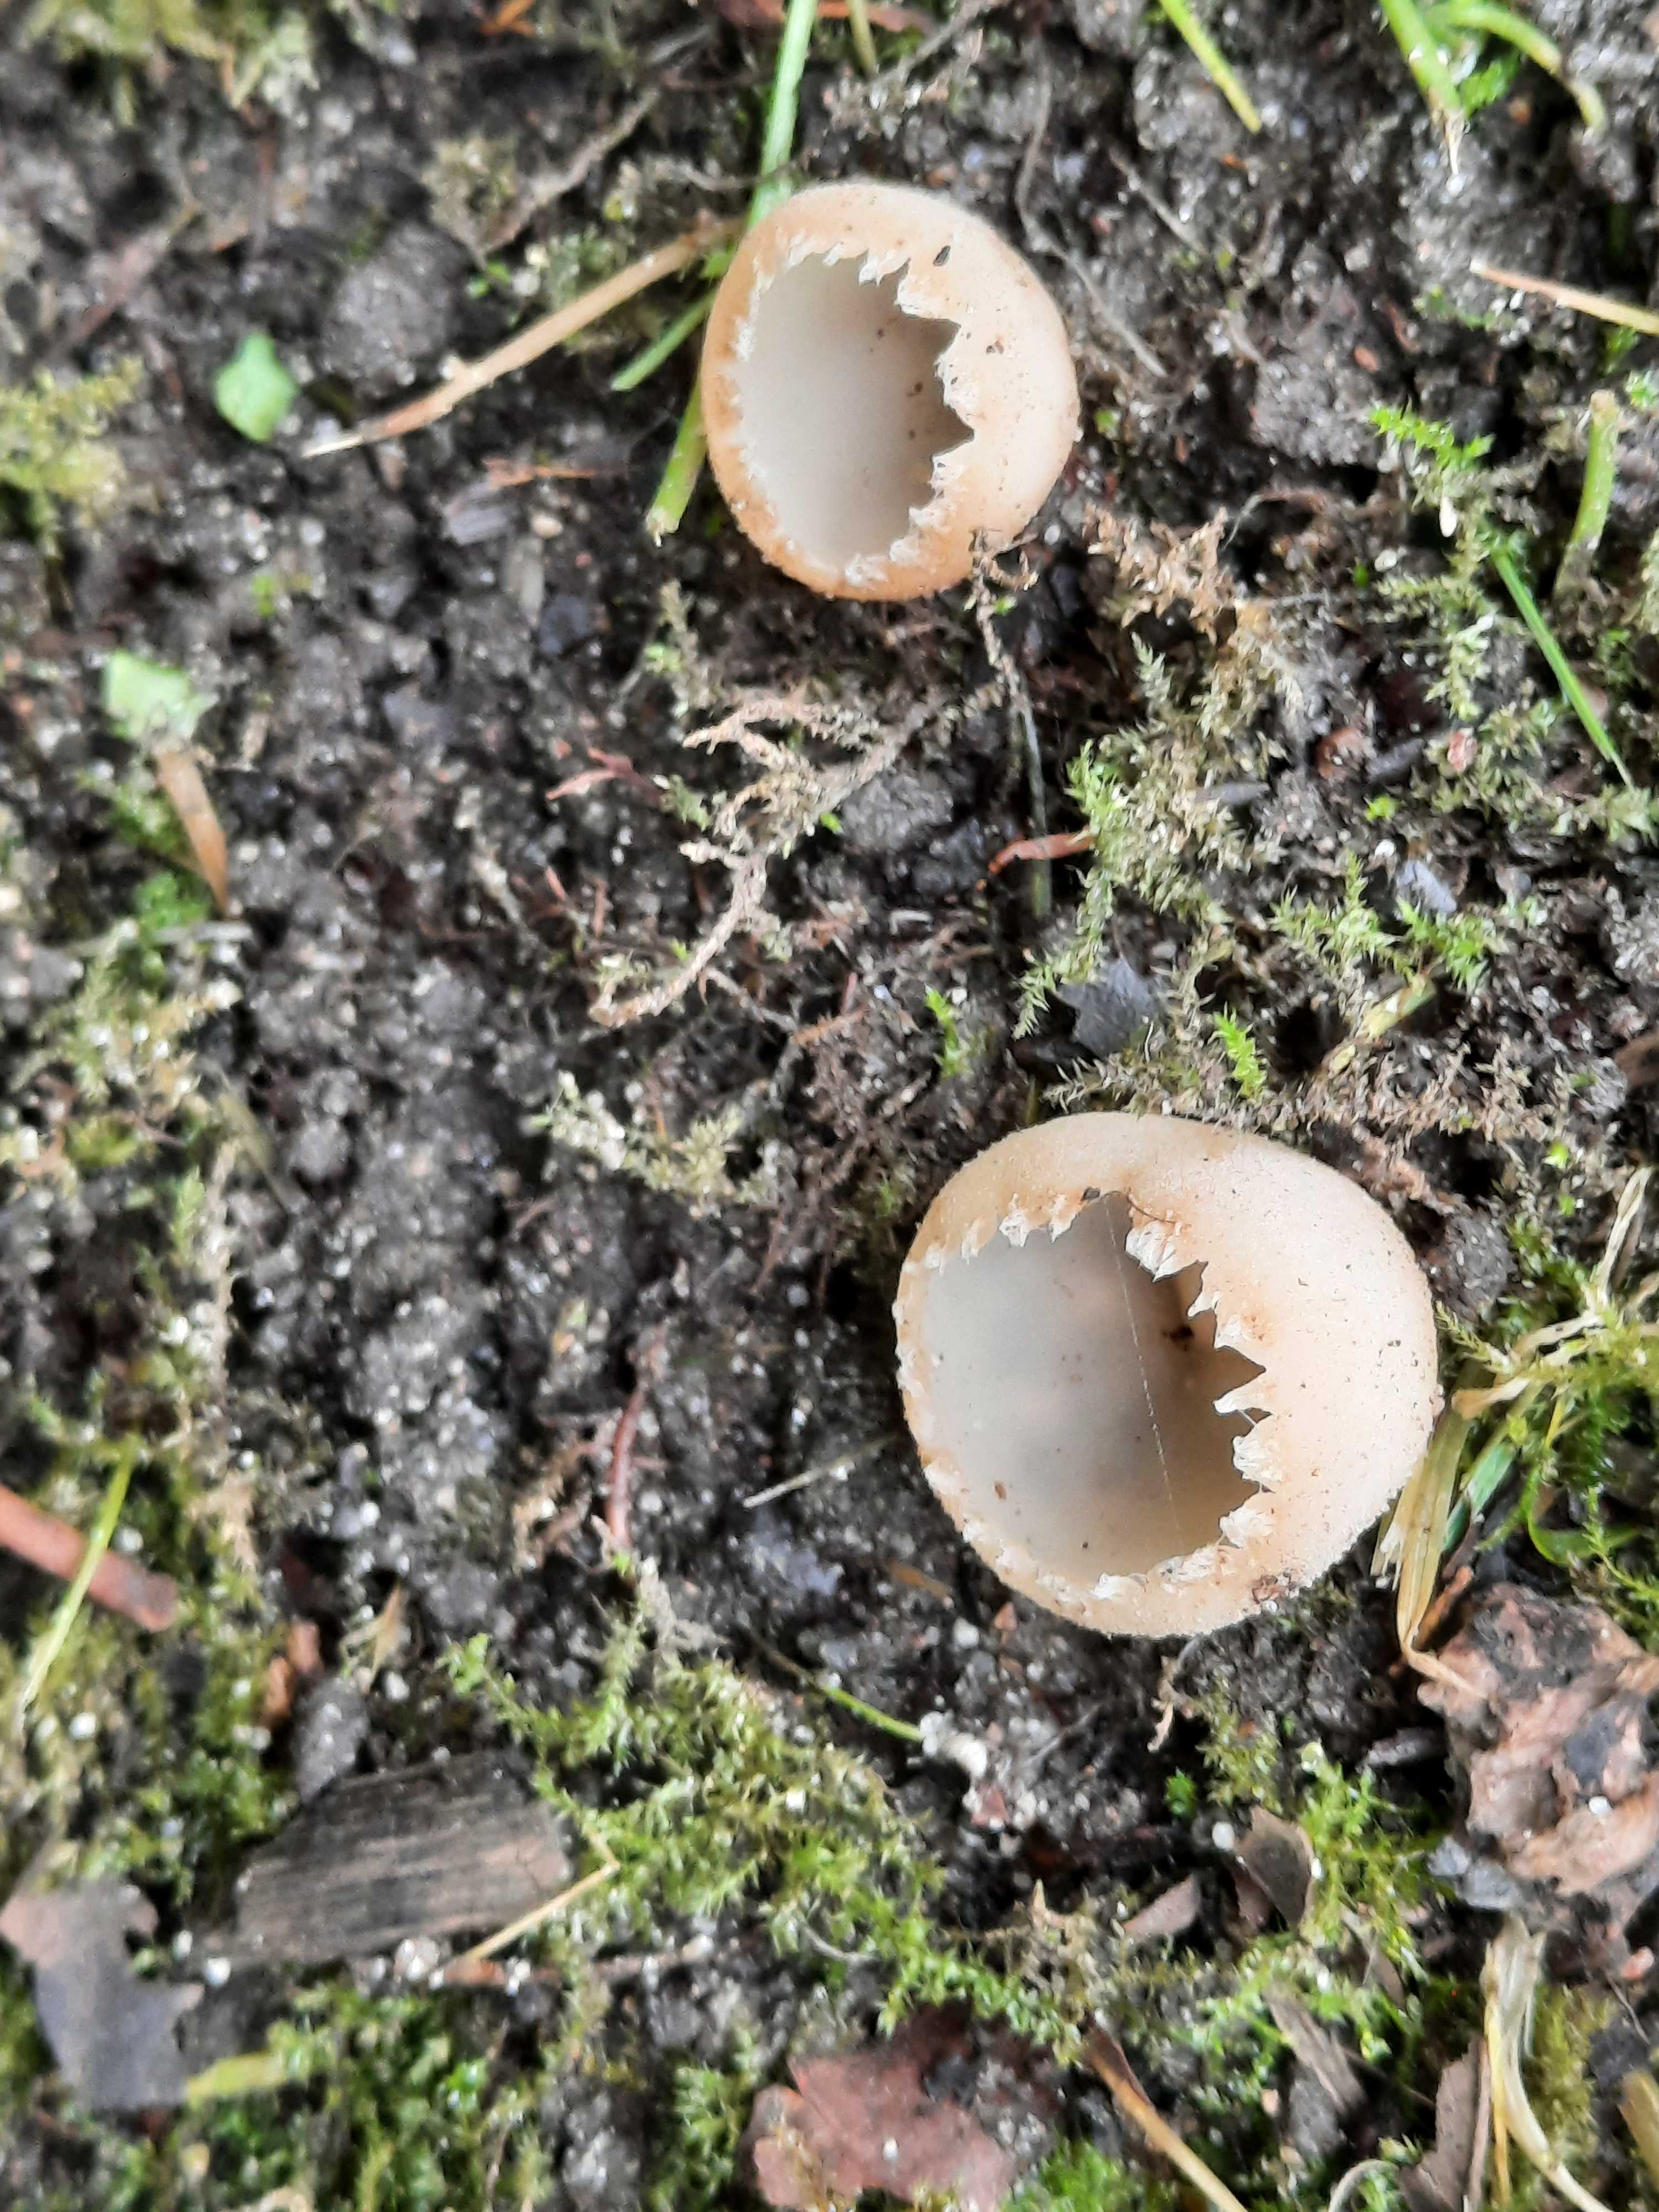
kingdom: Fungi
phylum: Ascomycota
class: Pezizomycetes
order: Pezizales
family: Pyronemataceae
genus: Tarzetta
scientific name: Tarzetta cupularis
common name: gulbrun pokalbæger
